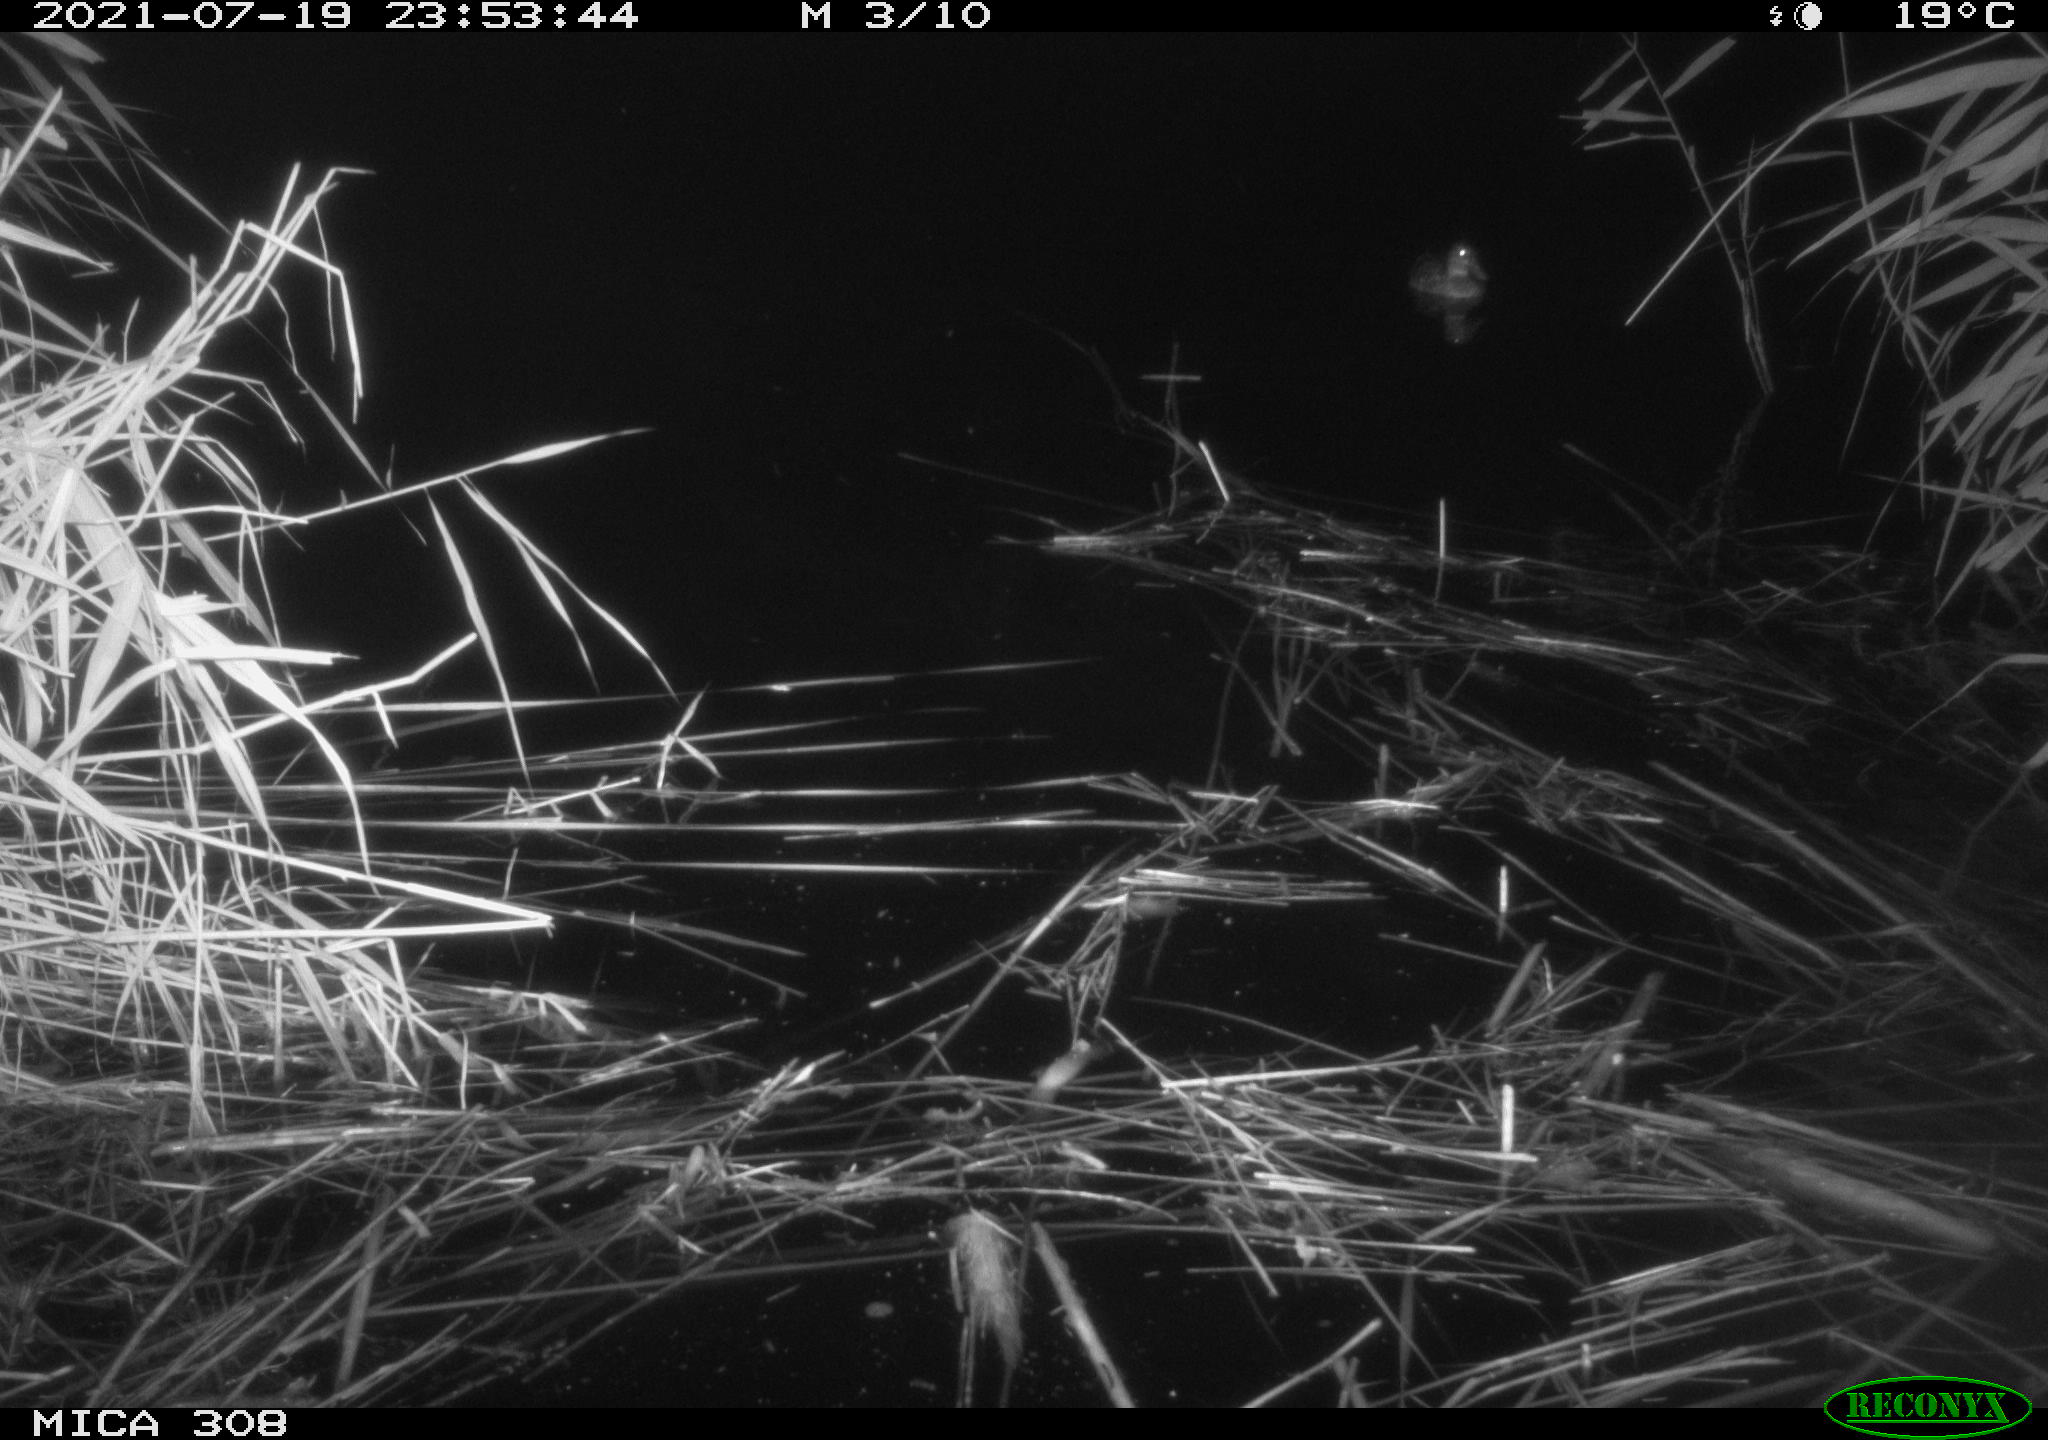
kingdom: Animalia
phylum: Chordata
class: Aves
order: Anseriformes
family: Anatidae
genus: Anas
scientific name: Anas platyrhynchos
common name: Mallard
